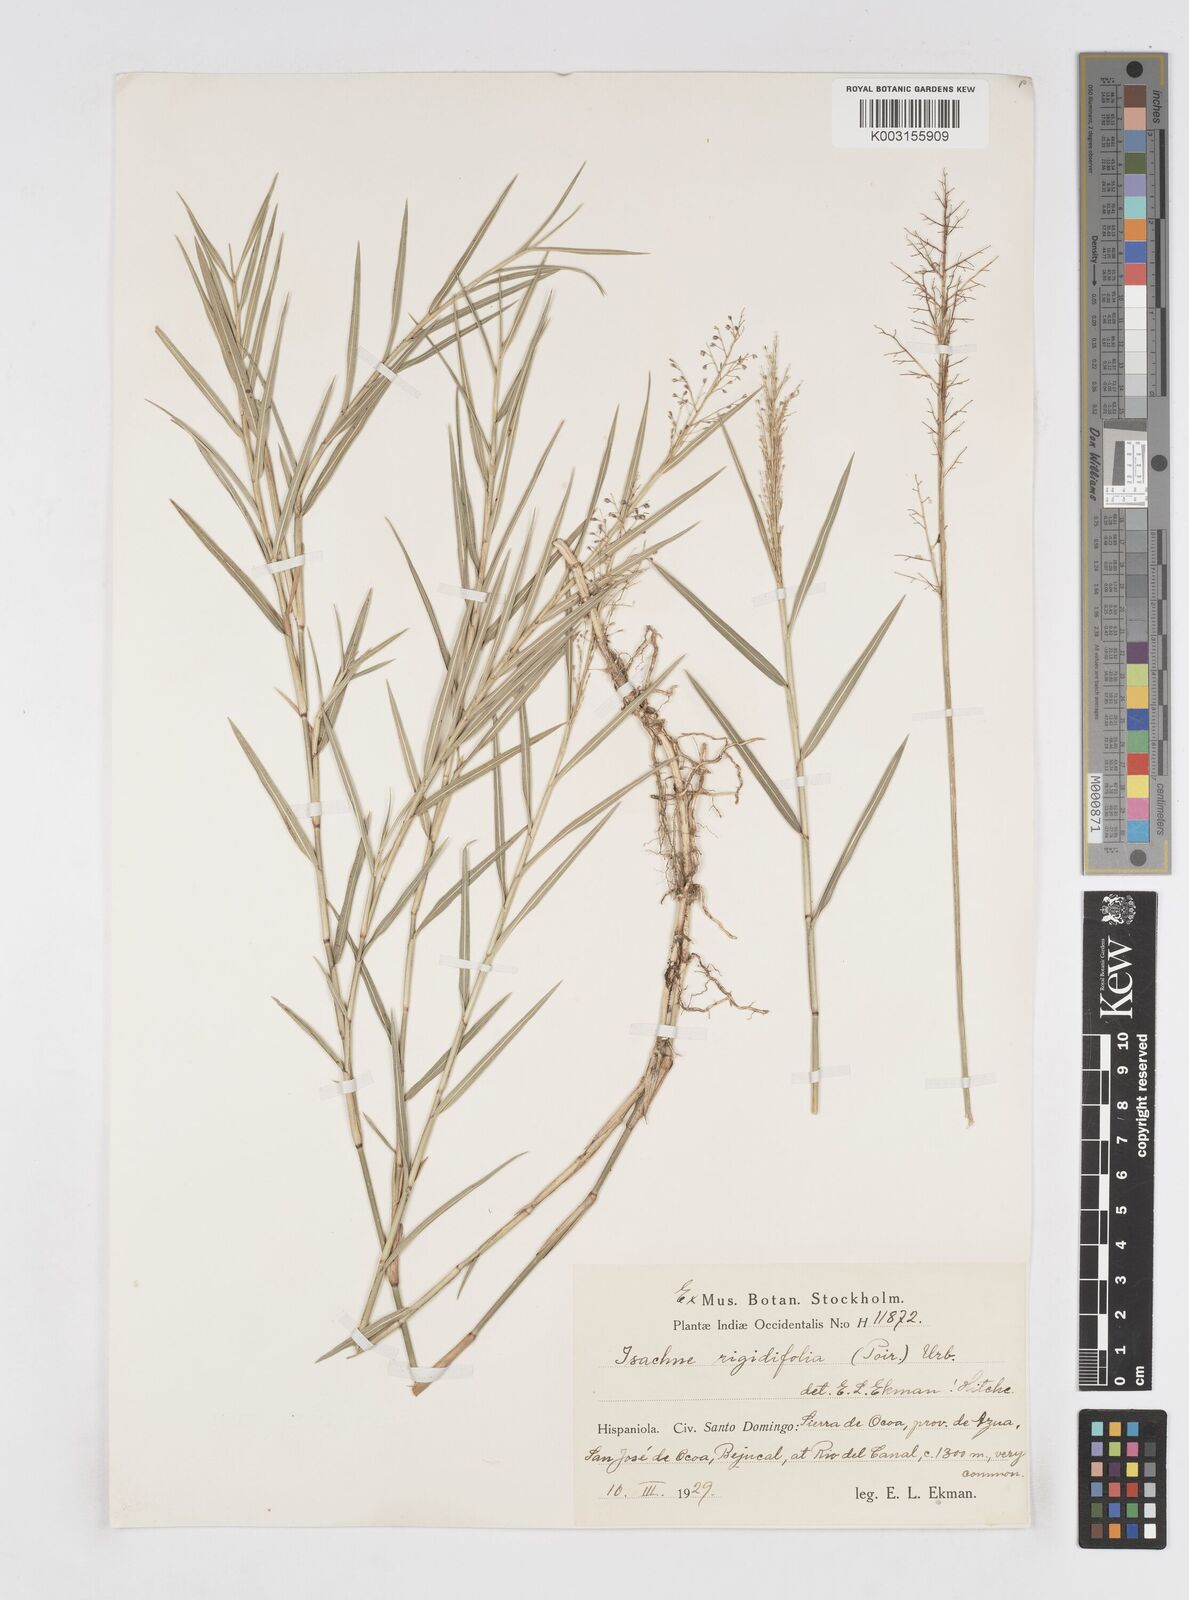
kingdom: Plantae
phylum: Tracheophyta
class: Liliopsida
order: Poales
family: Poaceae
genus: Isachne
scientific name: Isachne rigidifolia
